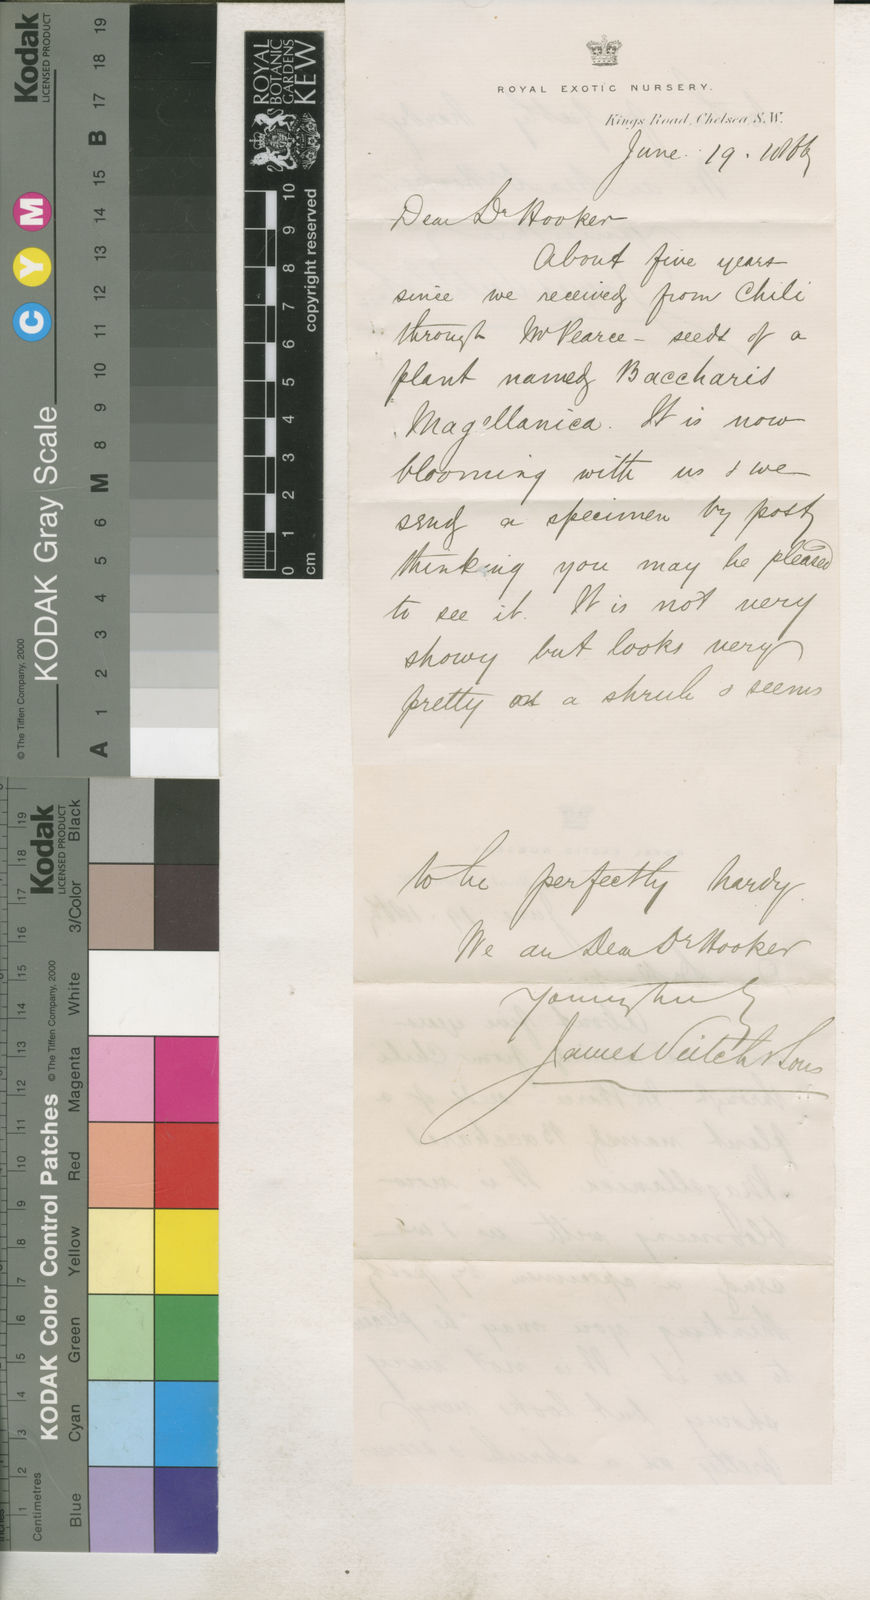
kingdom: Plantae
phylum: Tracheophyta
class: Liliopsida
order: Poales
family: Cyperaceae
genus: Carex
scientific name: Carex caduca
